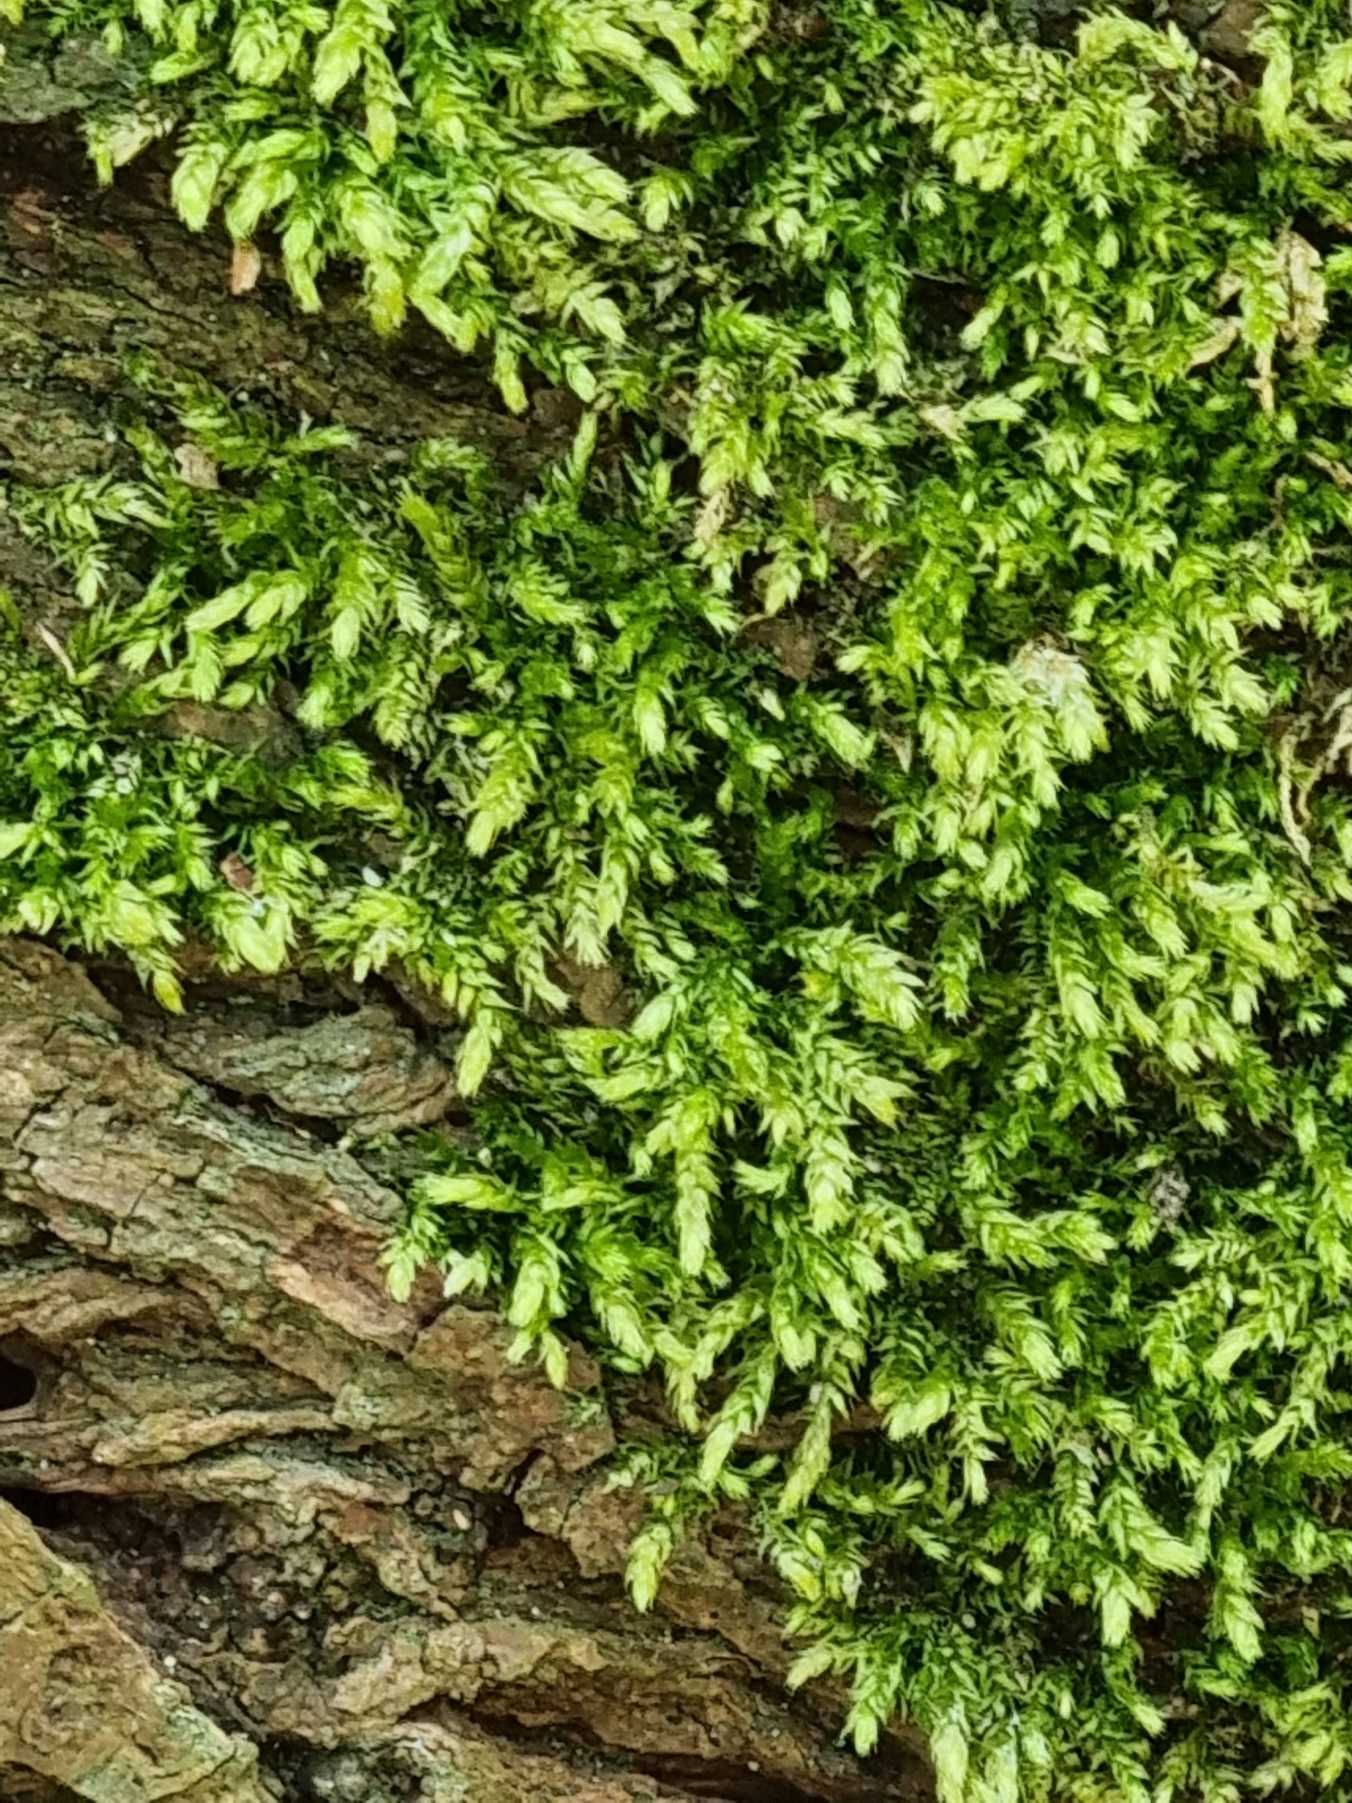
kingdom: Plantae
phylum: Bryophyta
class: Bryopsida
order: Hypnales
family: Brachytheciaceae
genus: Brachythecium
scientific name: Brachythecium rutabulum
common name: Almindelig kortkapsel
